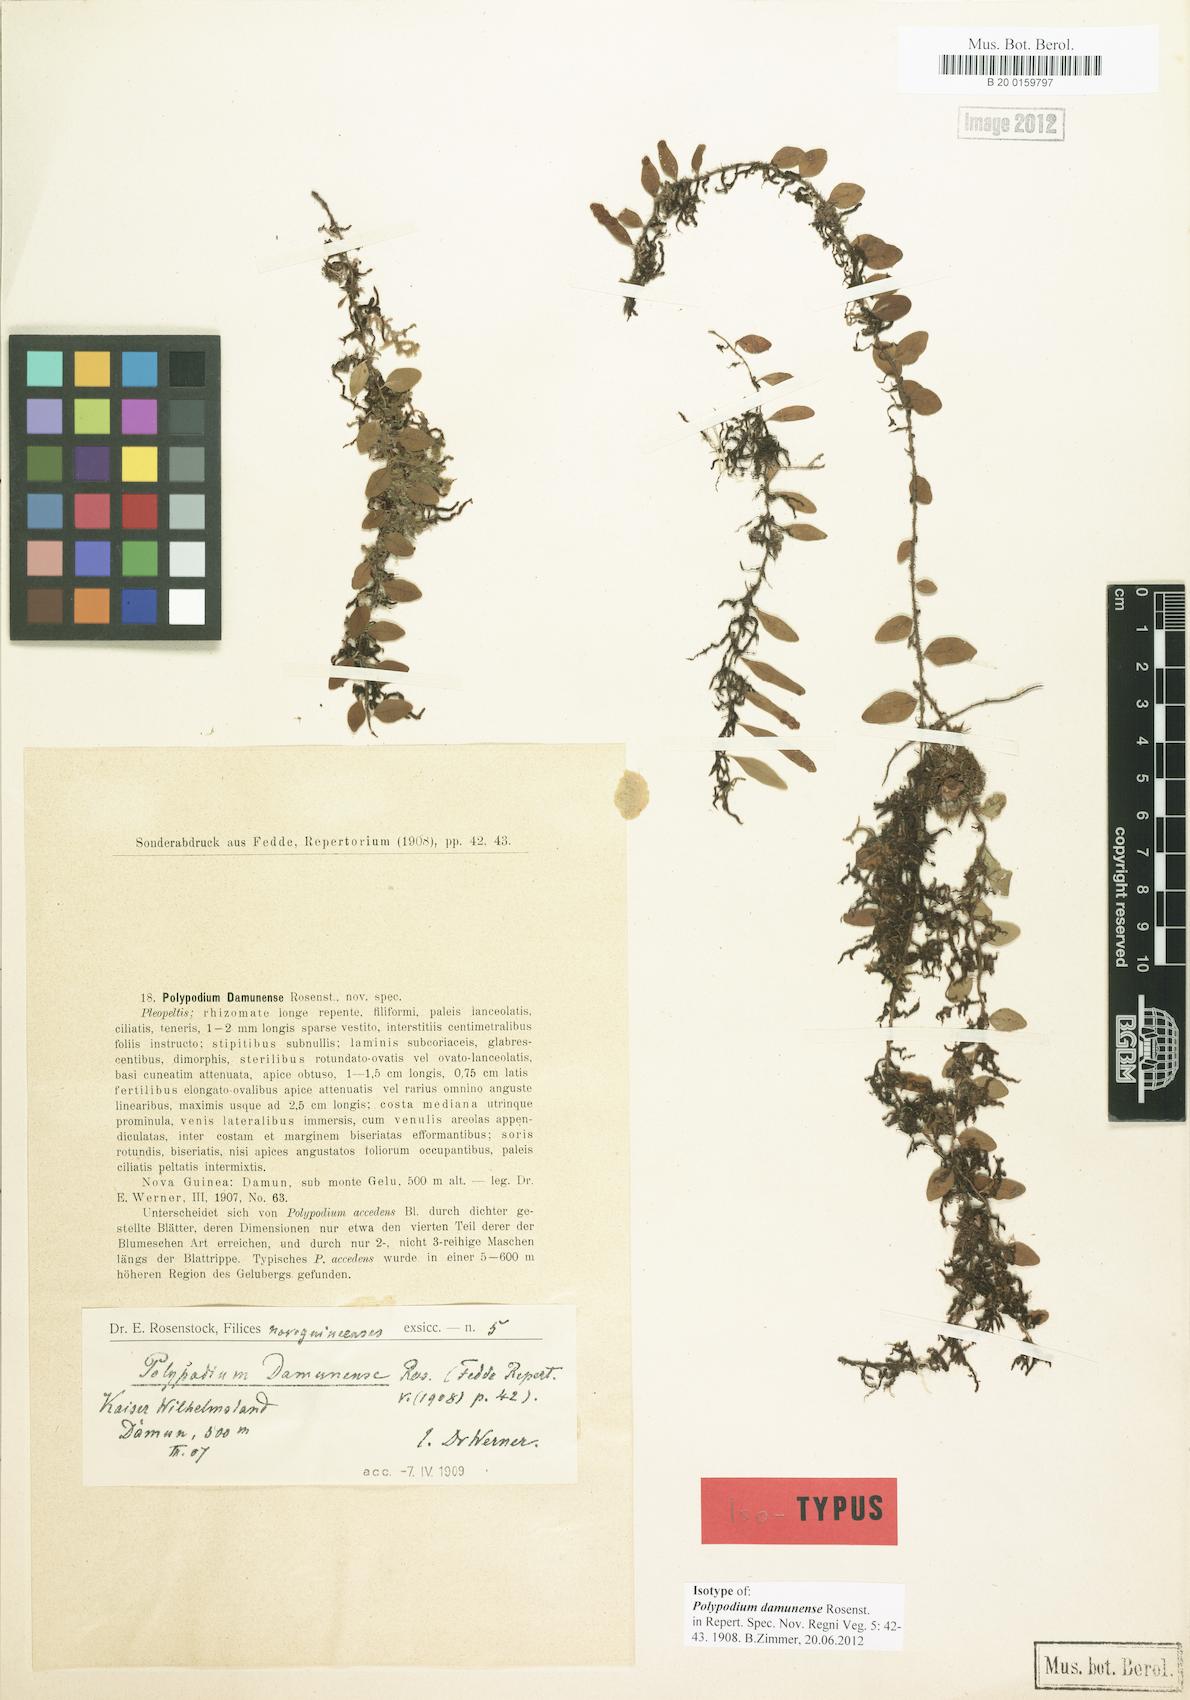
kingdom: Plantae
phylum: Tracheophyta
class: Polypodiopsida
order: Polypodiales
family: Polypodiaceae
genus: Lepisorus
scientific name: Lepisorus accedens
